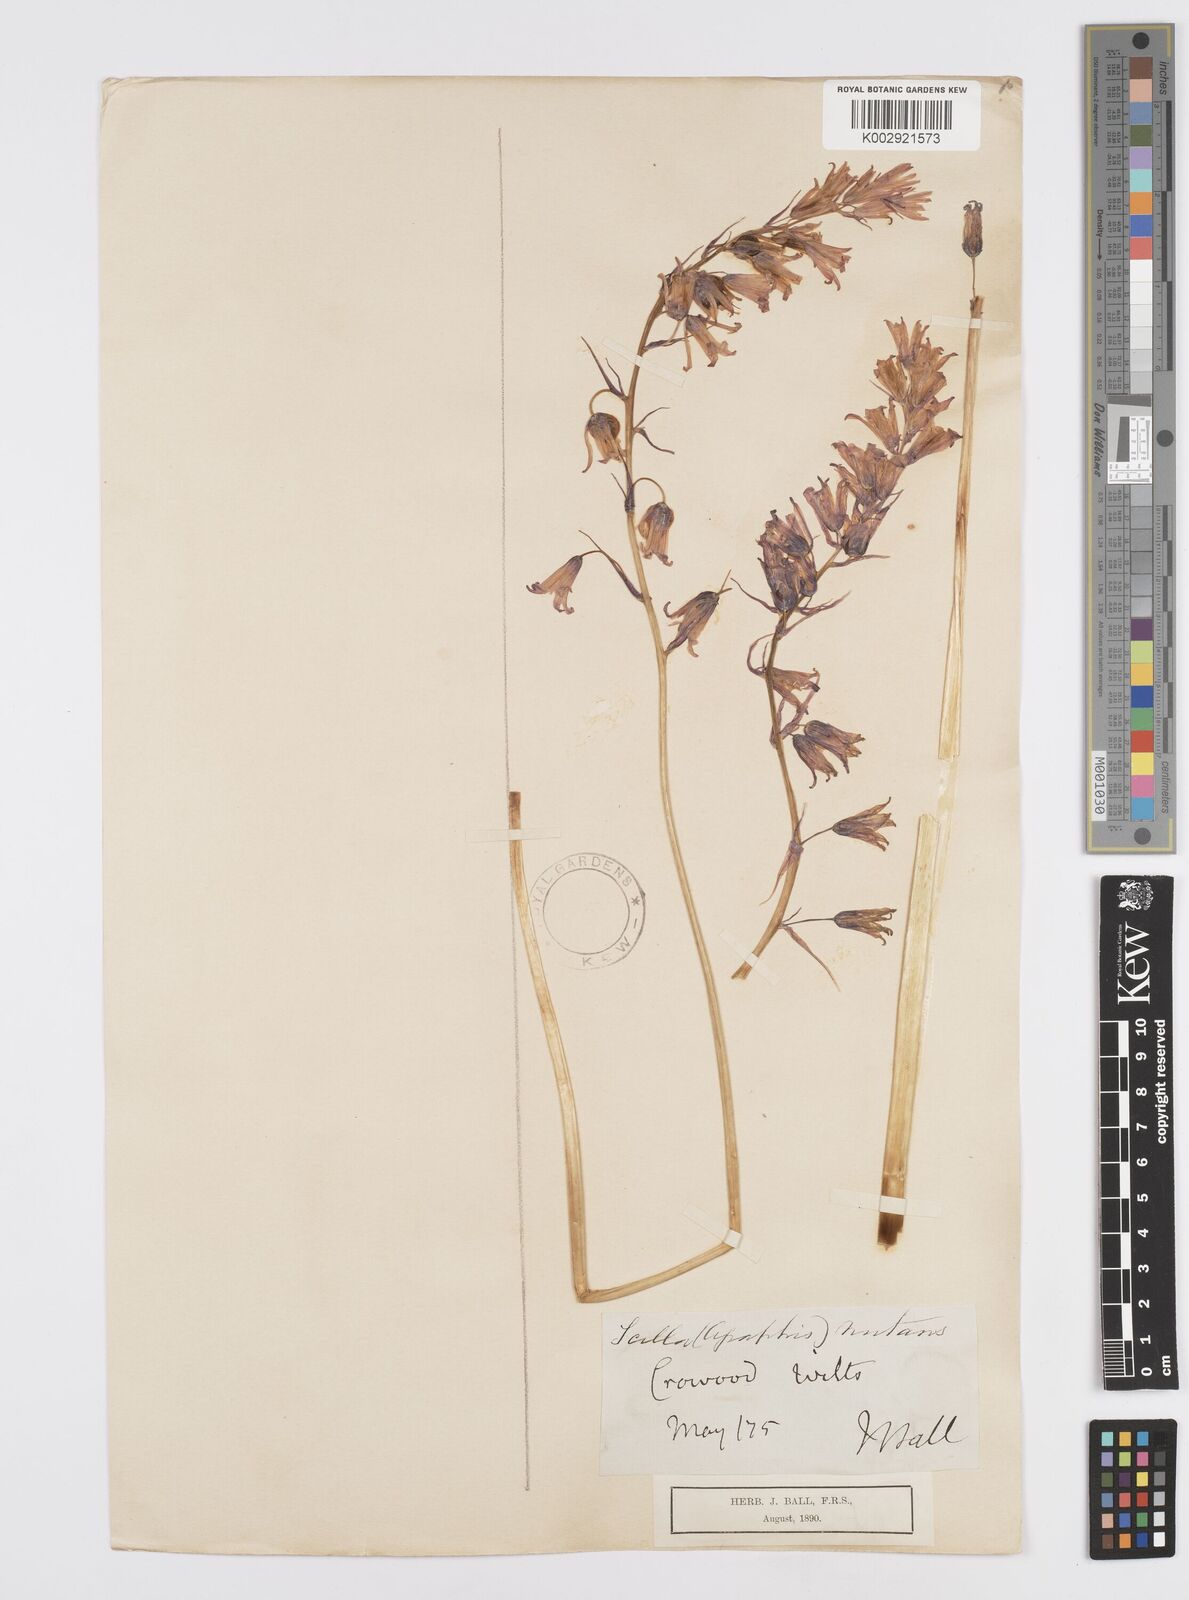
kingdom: Plantae
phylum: Tracheophyta
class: Liliopsida
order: Asparagales
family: Asparagaceae
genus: Hyacinthoides
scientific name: Hyacinthoides non-scripta
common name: Bluebell
